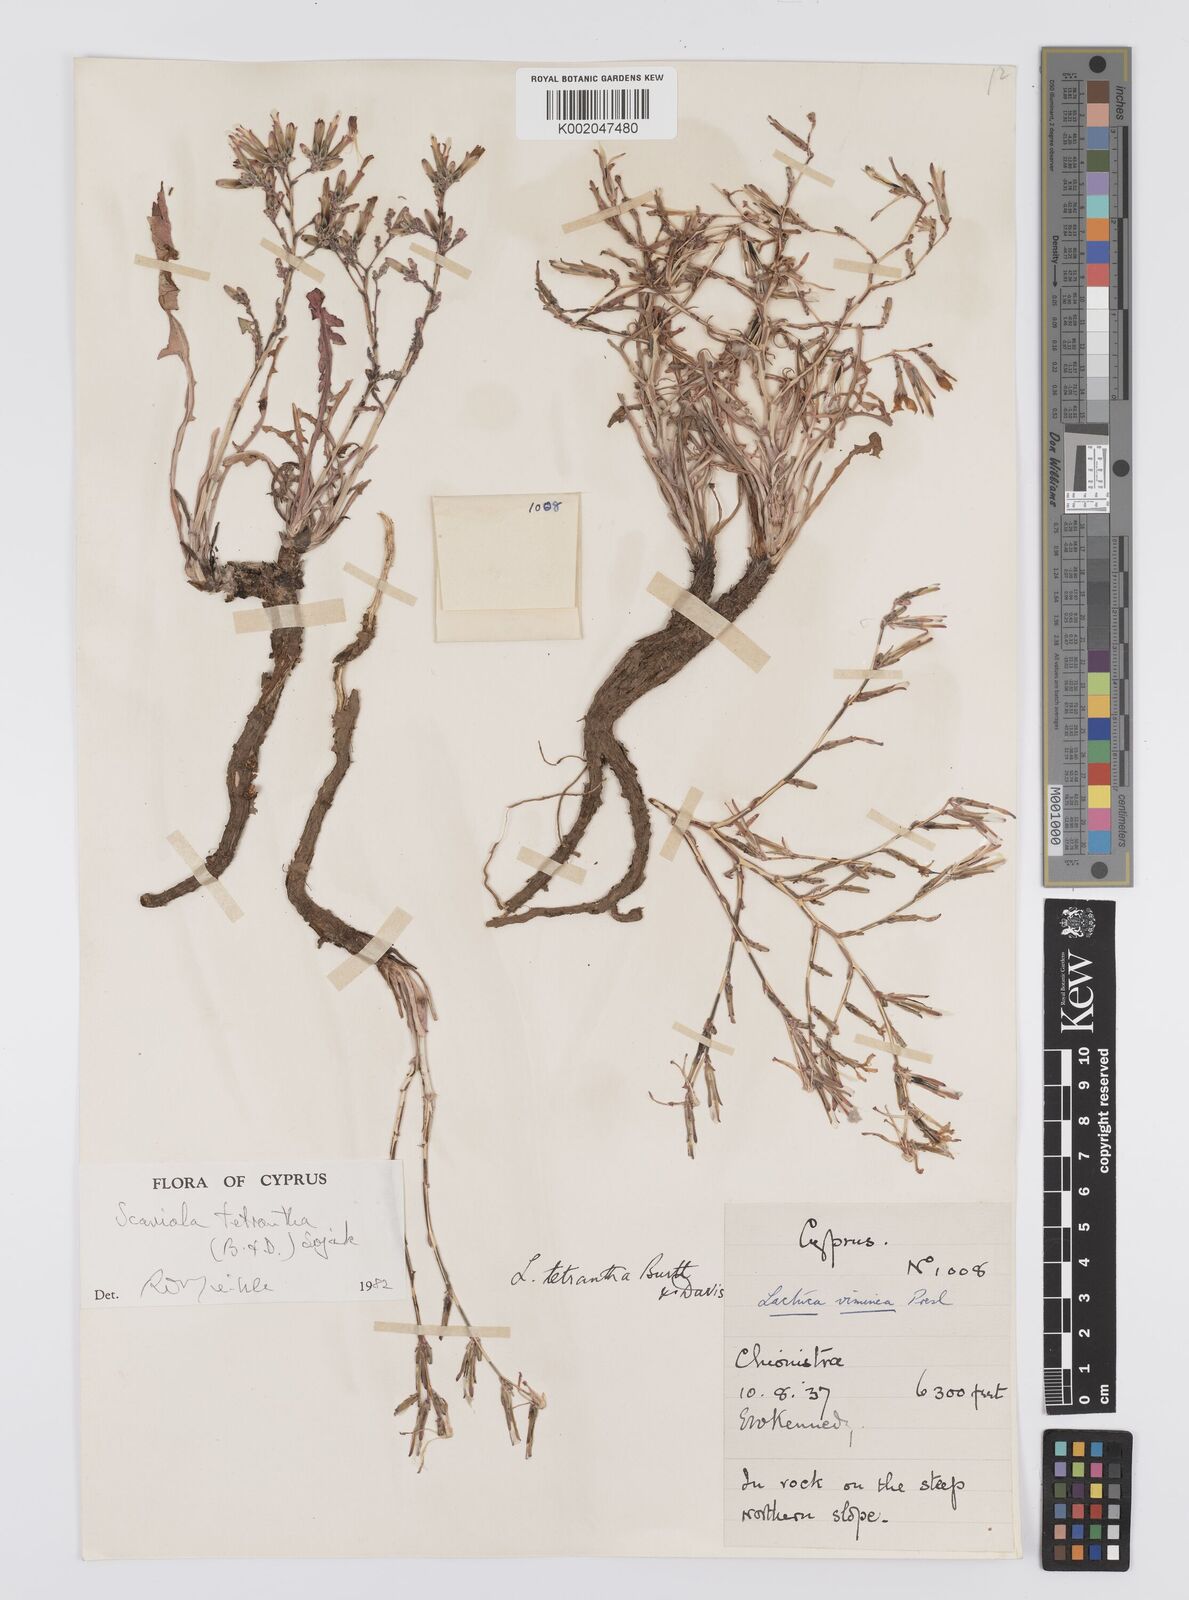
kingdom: Plantae
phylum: Tracheophyta
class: Magnoliopsida
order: Asterales
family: Asteraceae
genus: Lactuca
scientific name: Lactuca tetrantha
